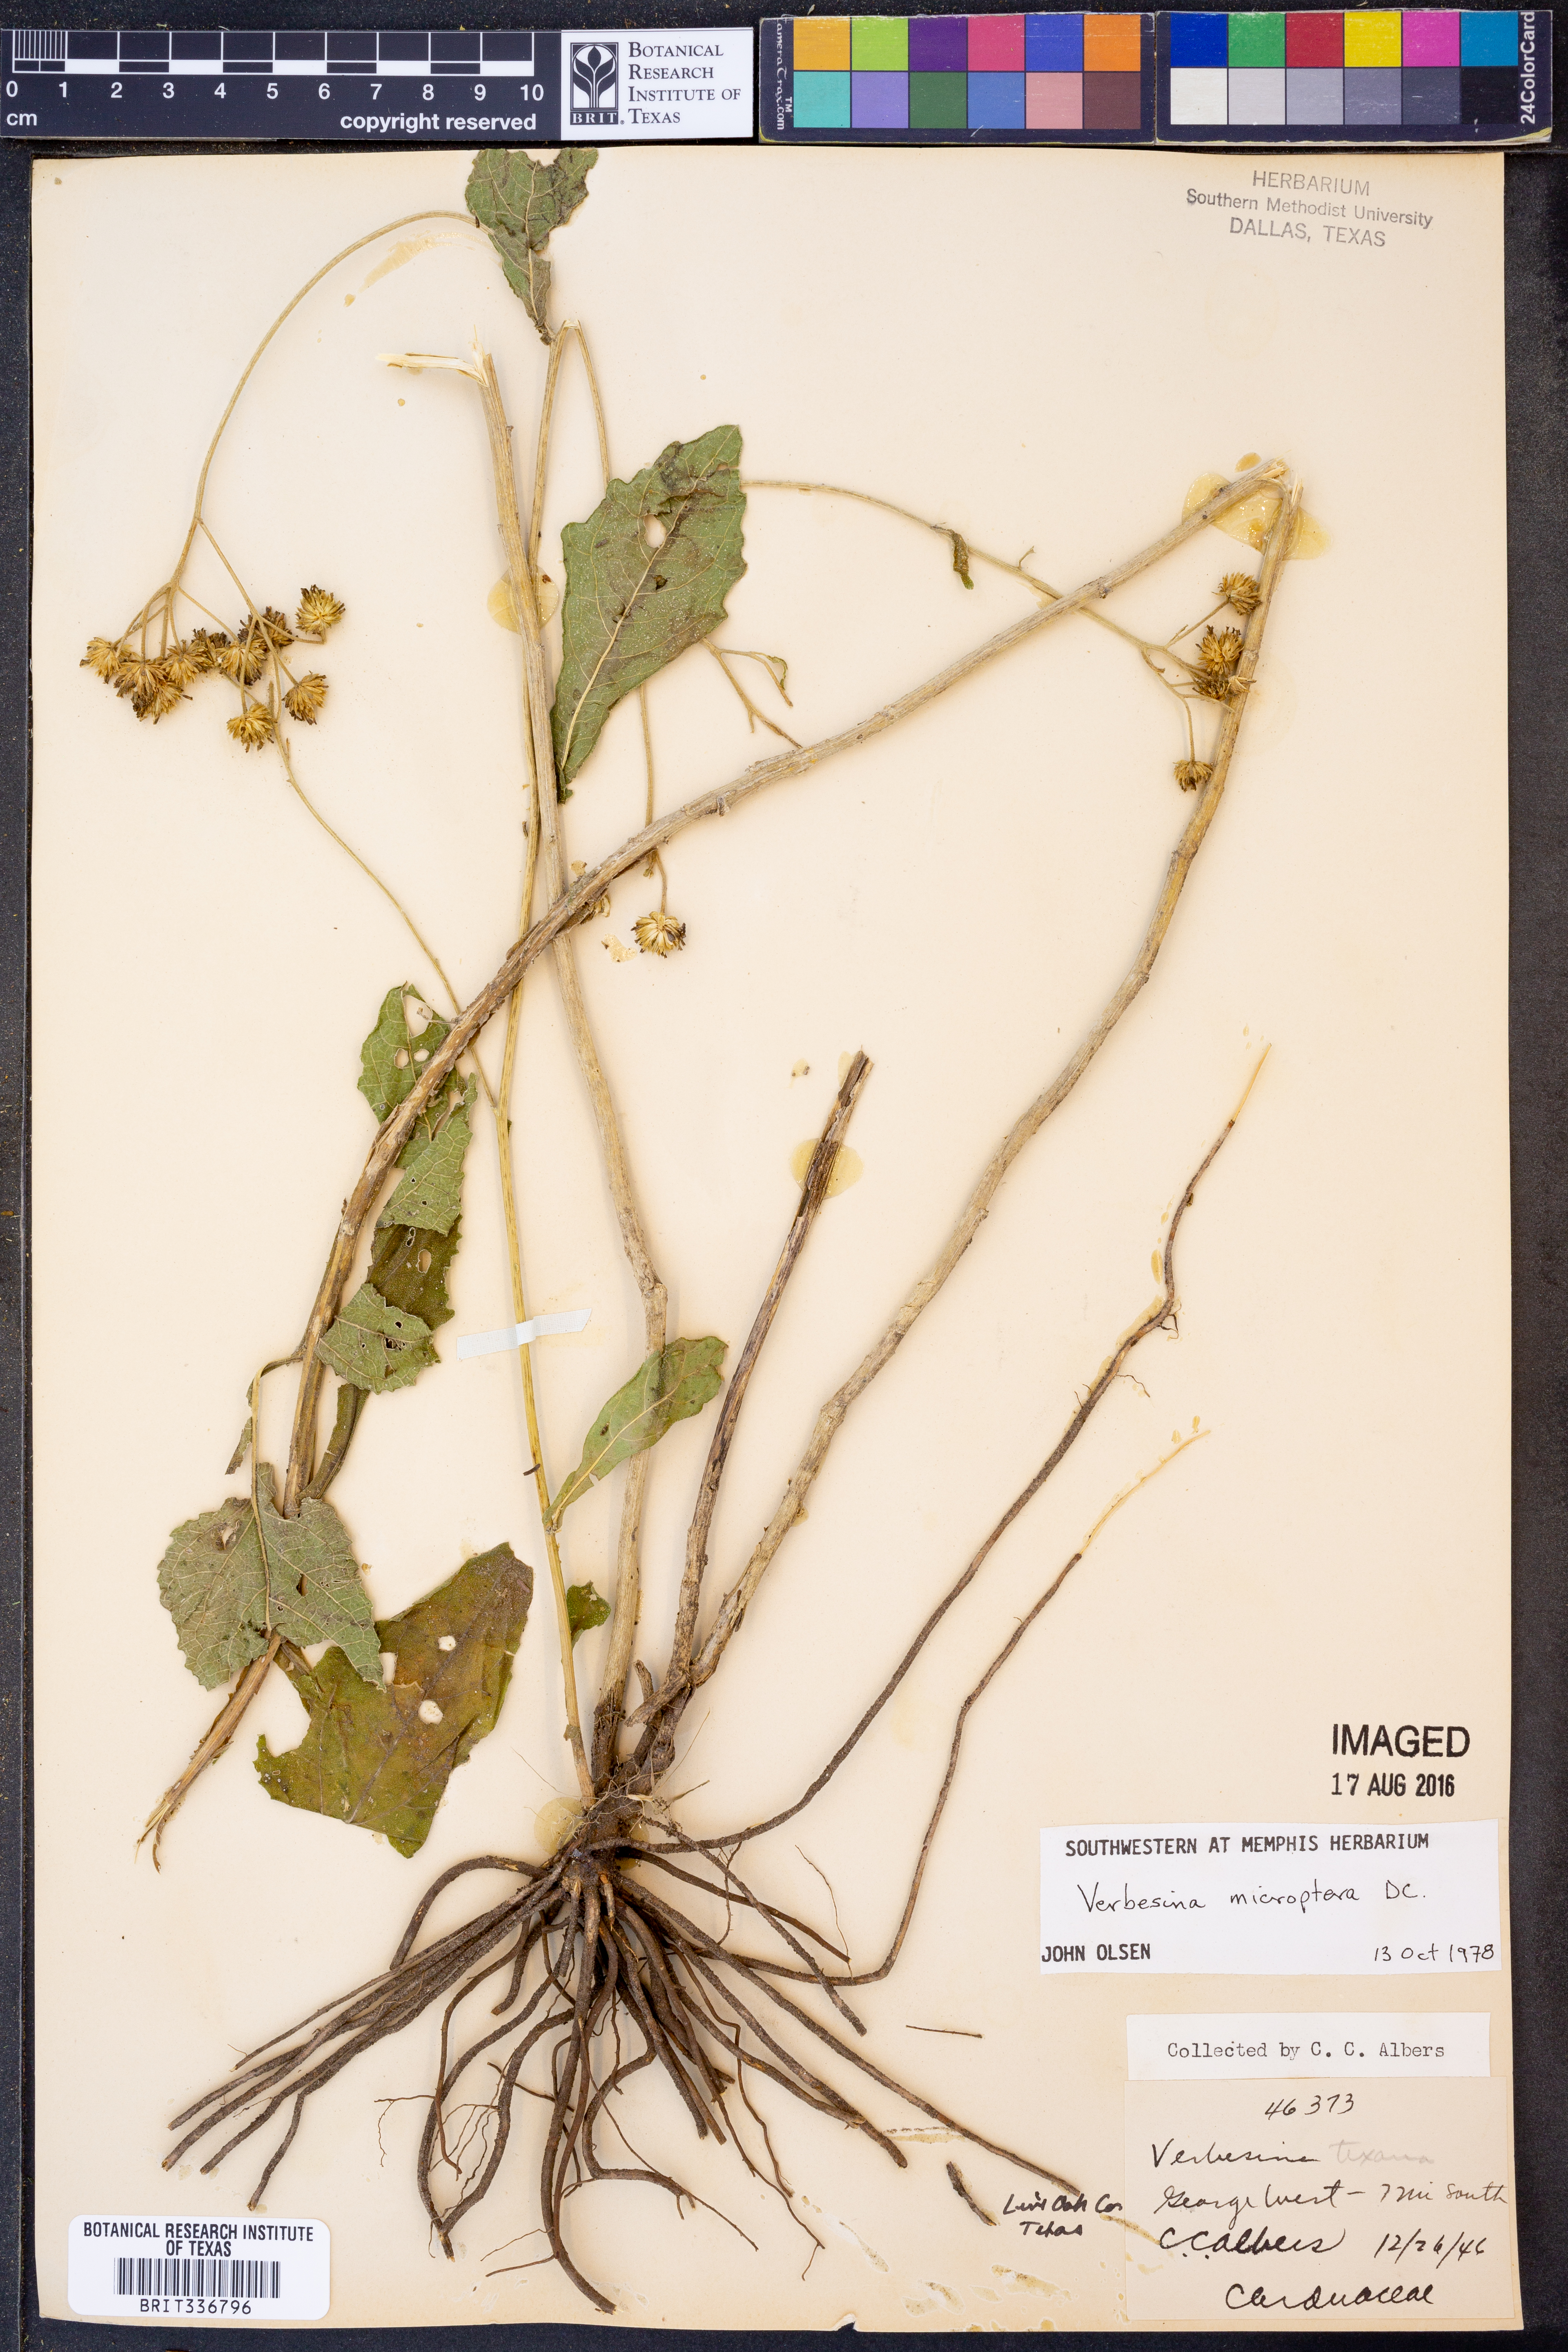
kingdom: Plantae
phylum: Tracheophyta
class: Magnoliopsida
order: Asterales
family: Asteraceae
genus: Verbesina
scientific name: Verbesina encelioides
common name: Golden crownbeard
